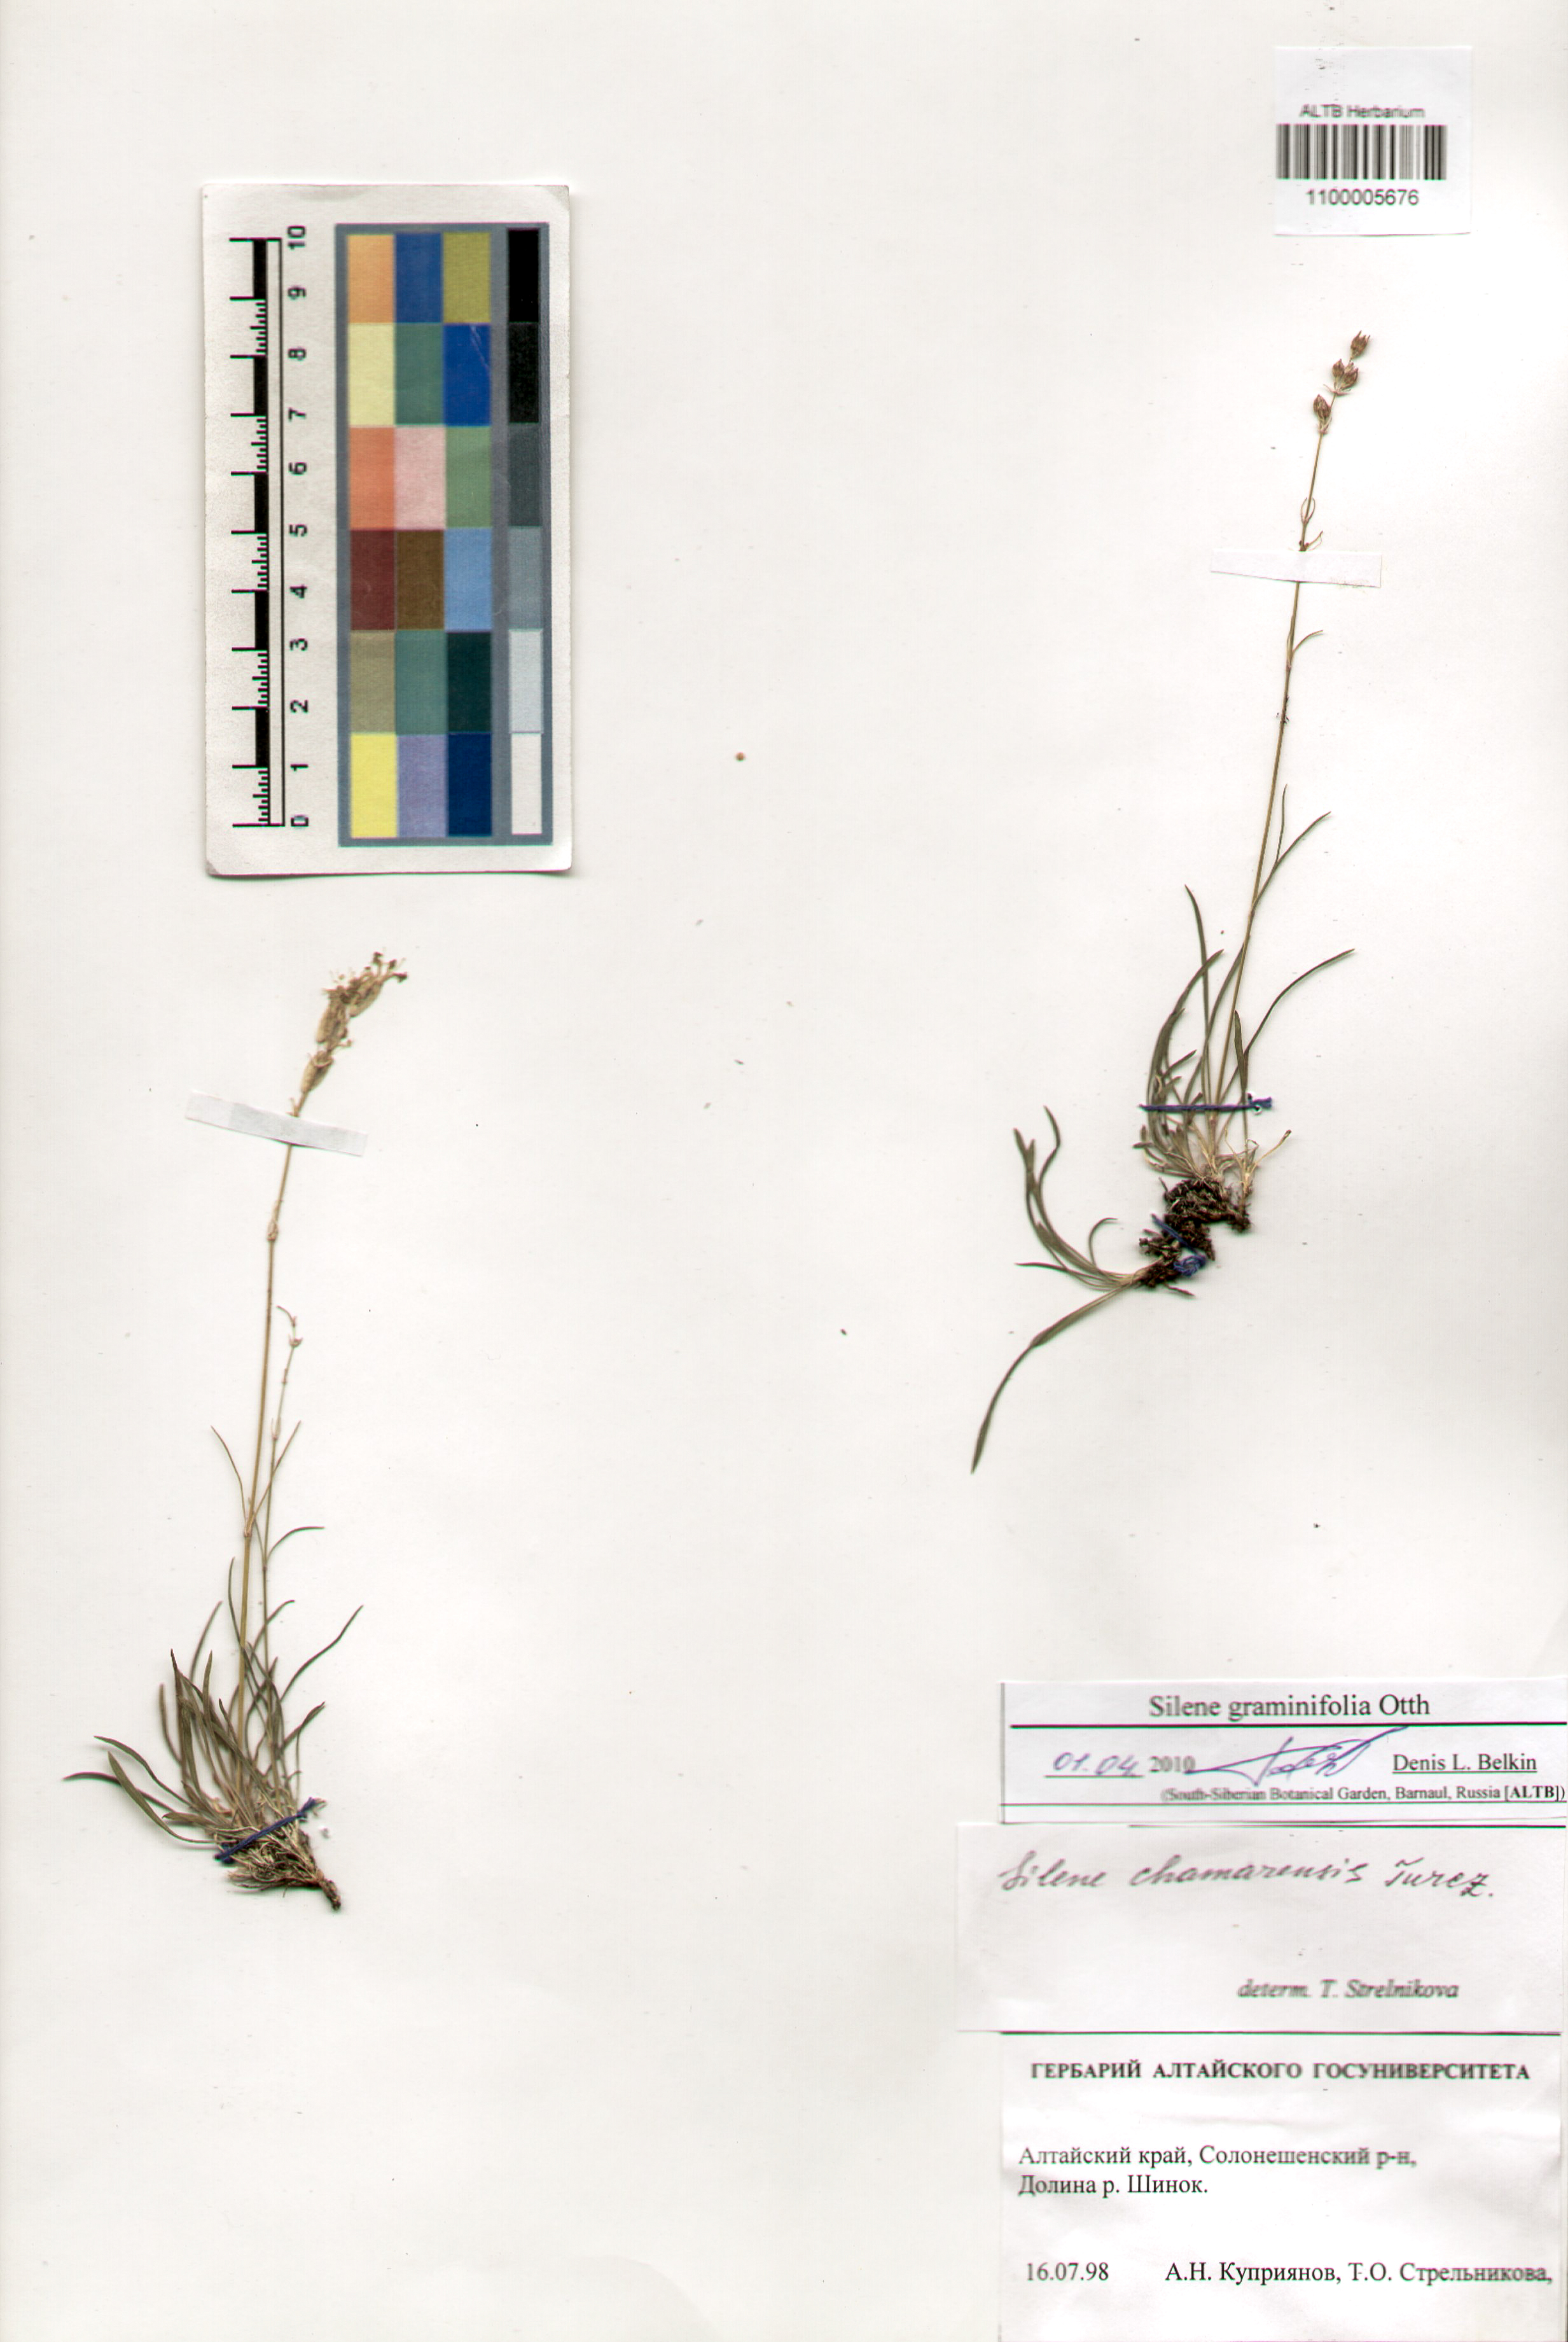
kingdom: Plantae
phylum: Tracheophyta
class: Magnoliopsida
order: Caryophyllales
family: Caryophyllaceae
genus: Silene
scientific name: Silene graminifolia
